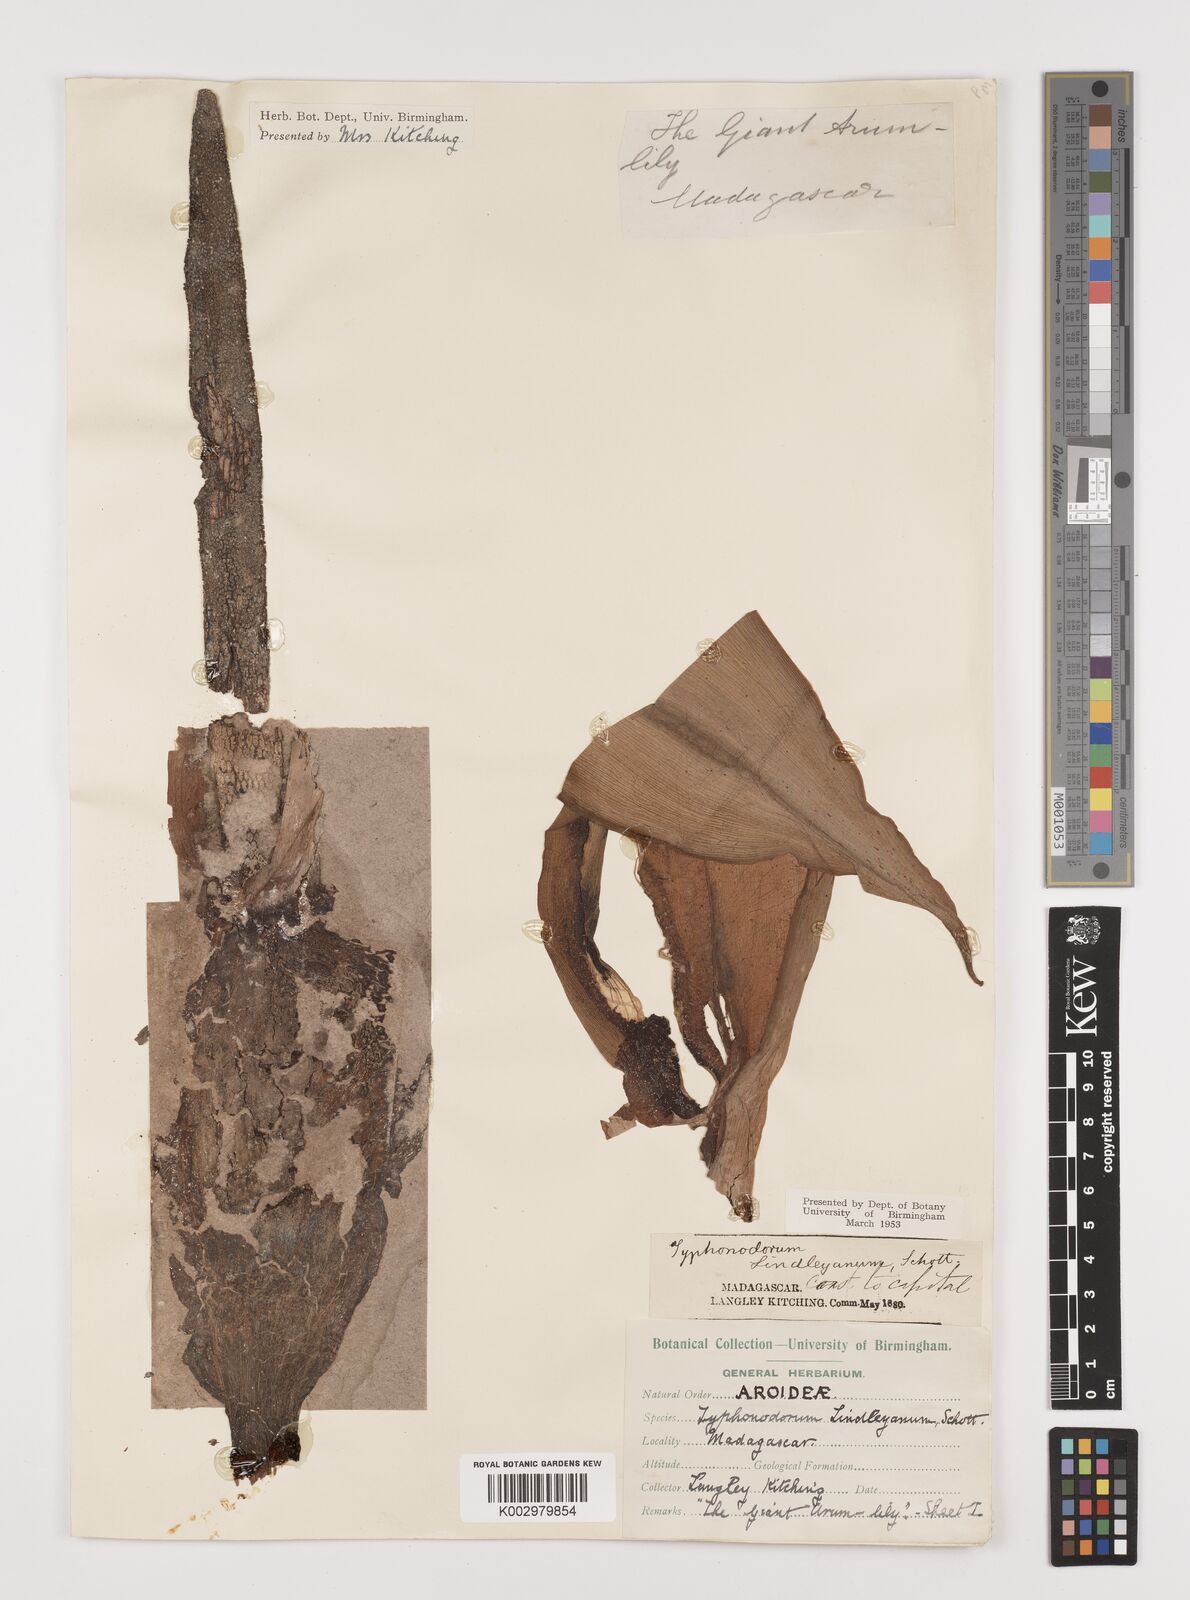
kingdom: Plantae
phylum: Tracheophyta
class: Liliopsida
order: Alismatales
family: Araceae
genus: Typhonodorum
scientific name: Typhonodorum lindleyanum
